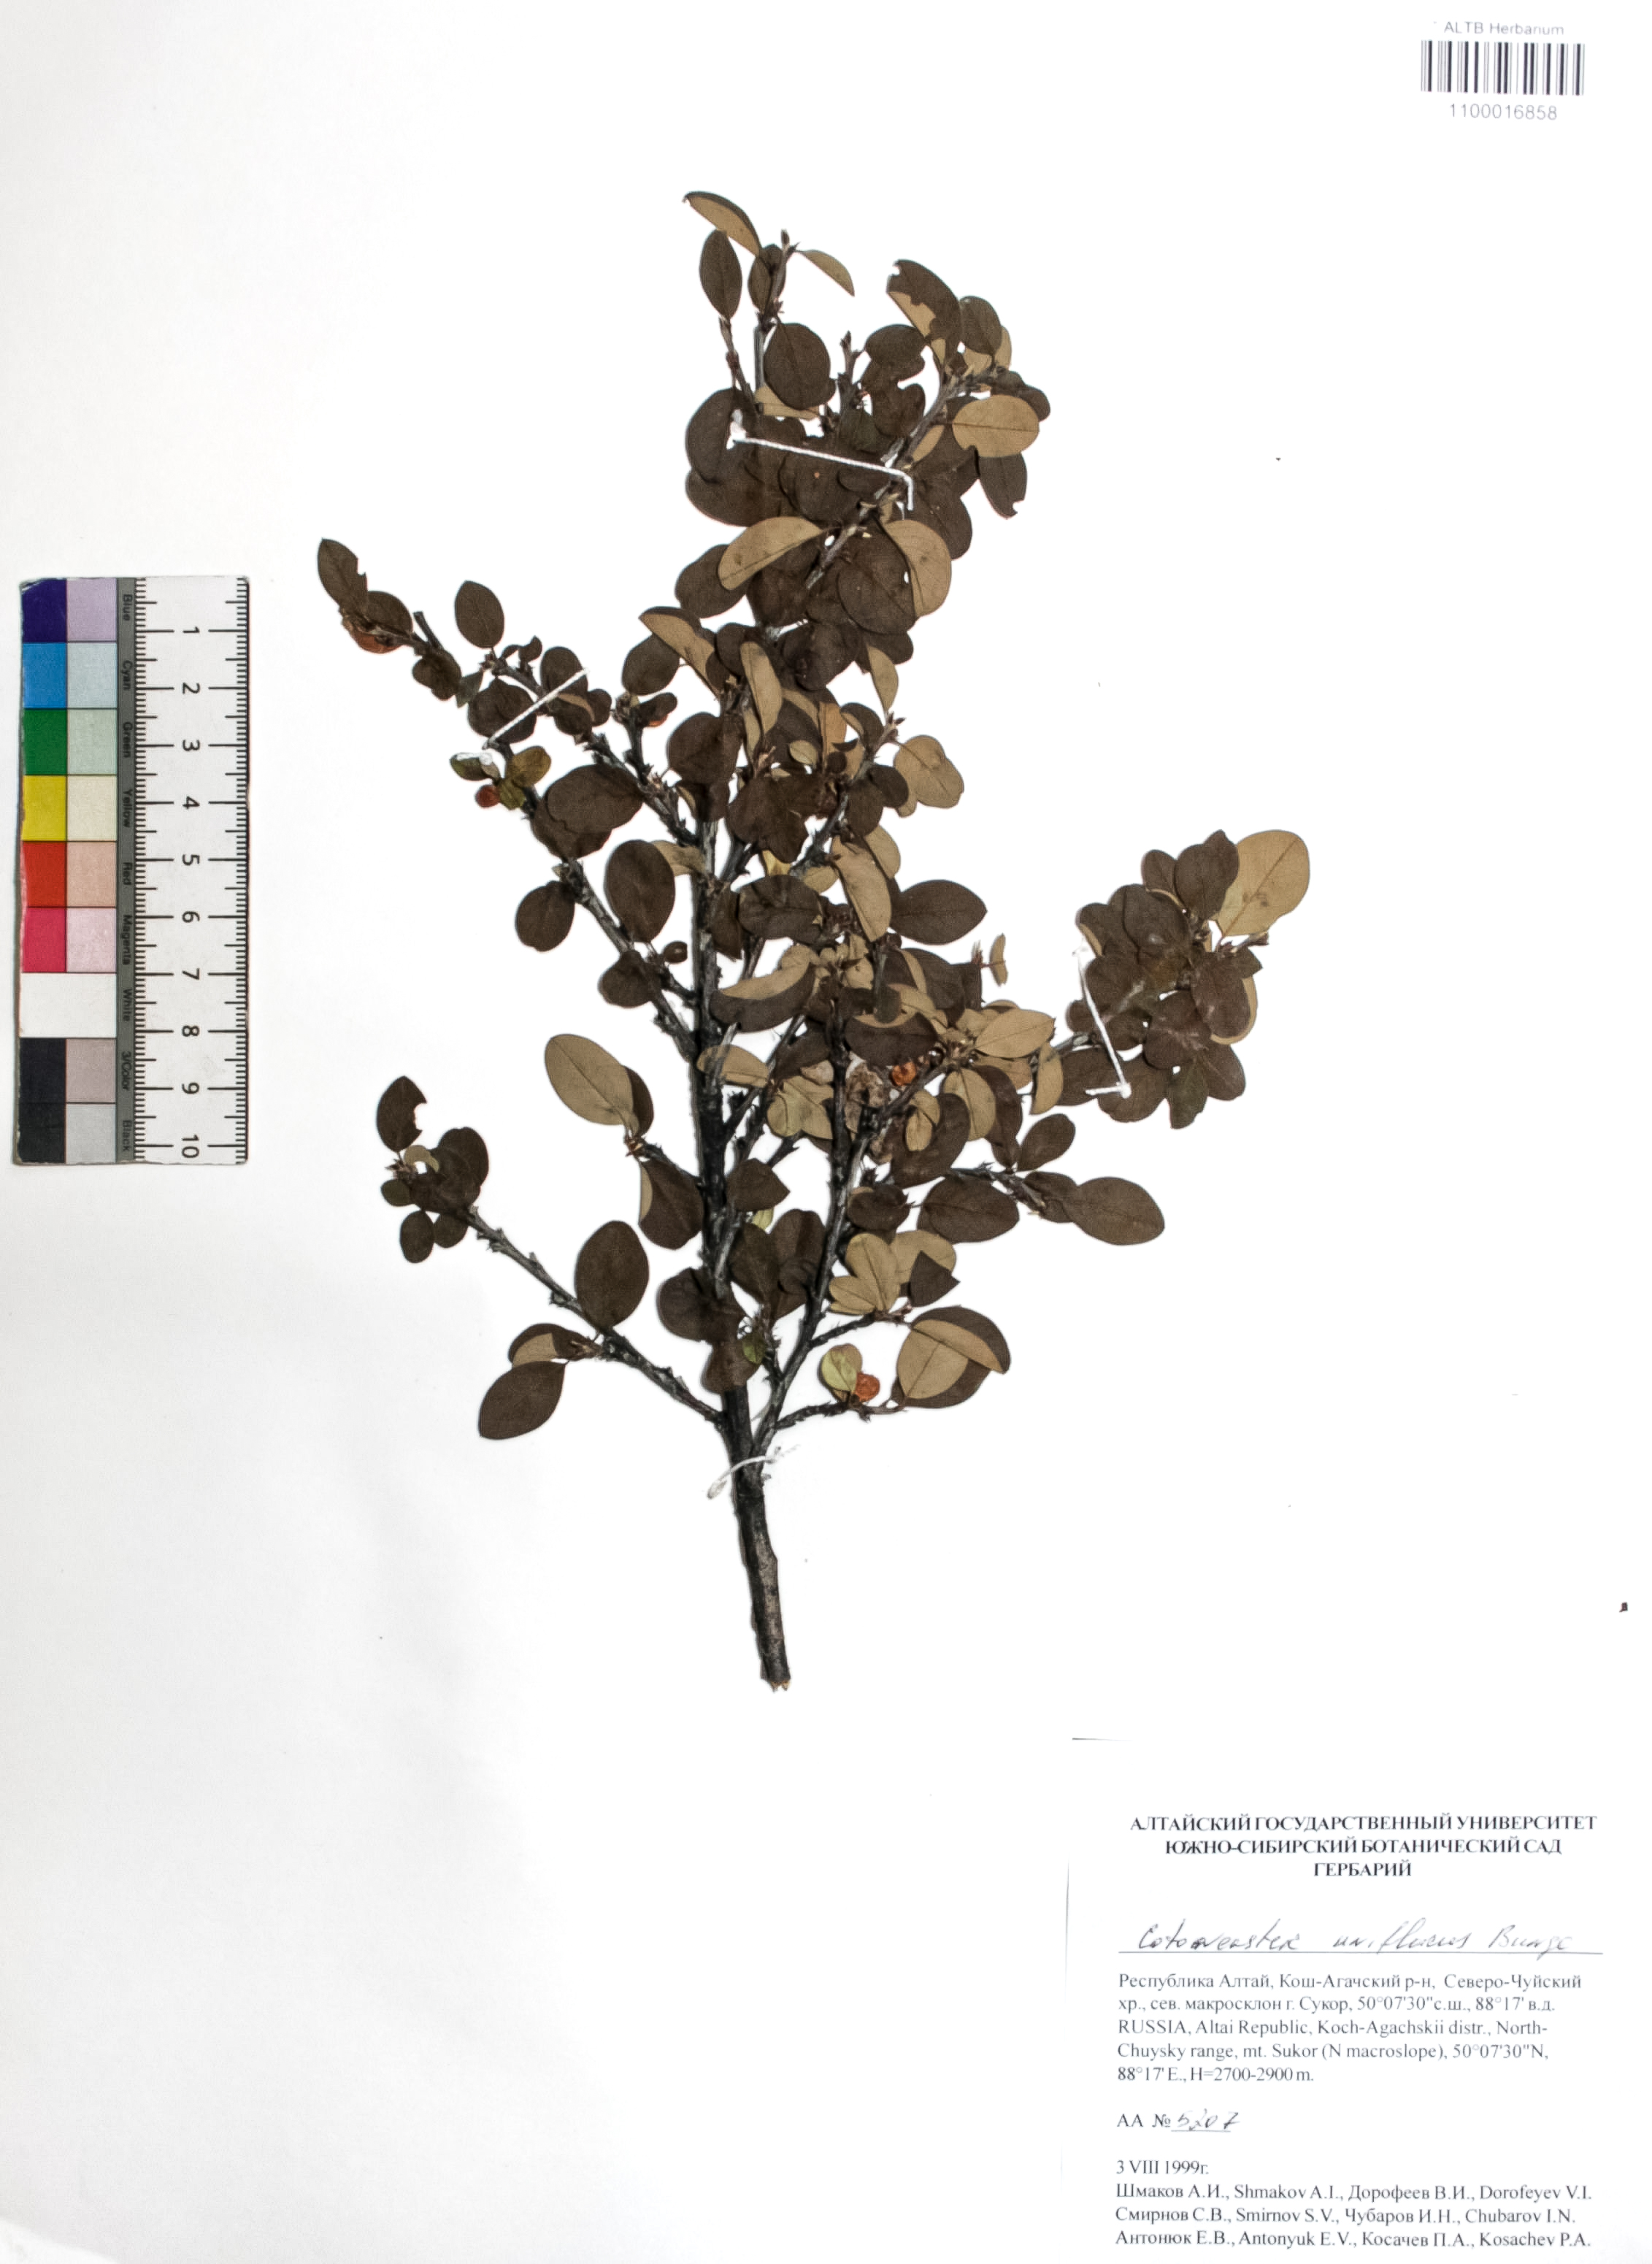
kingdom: Plantae
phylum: Tracheophyta
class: Magnoliopsida
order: Rosales
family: Rosaceae
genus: Cotoneaster
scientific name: Cotoneaster uniflorus
